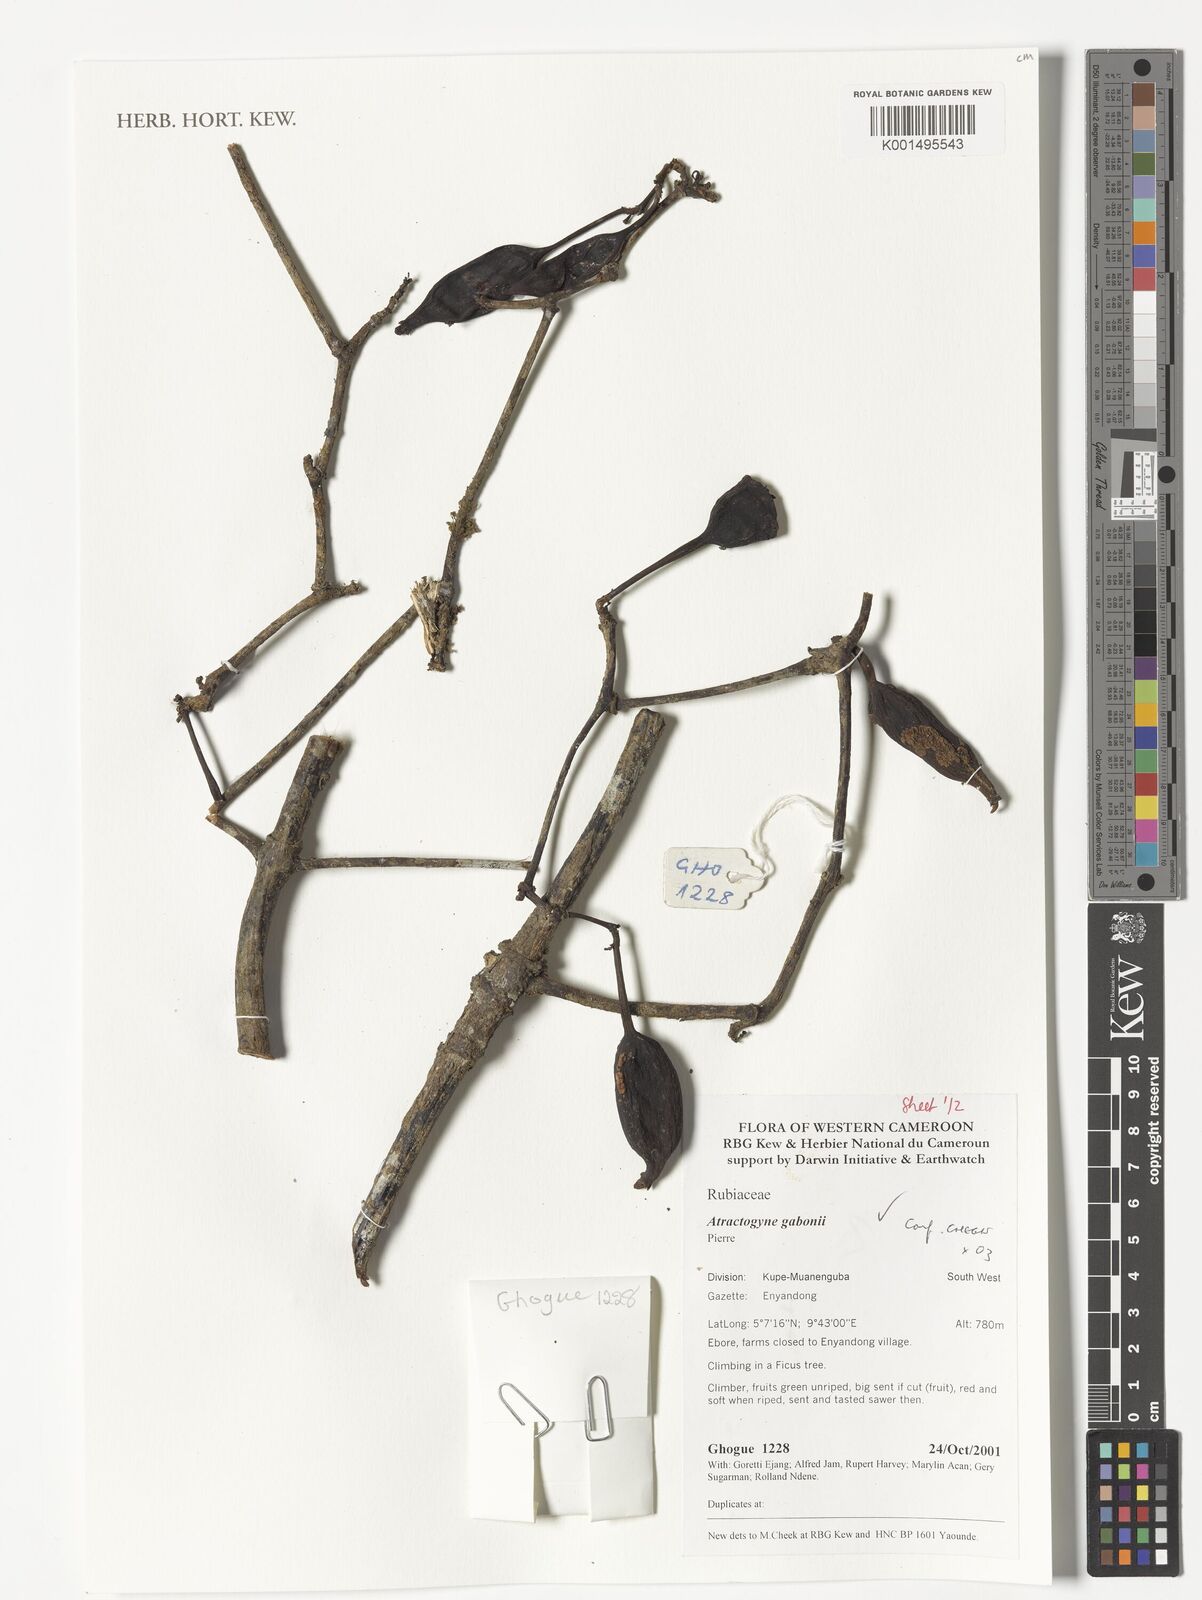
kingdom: Plantae
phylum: Tracheophyta
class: Magnoliopsida
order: Gentianales
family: Rubiaceae
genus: Atractogyne
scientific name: Atractogyne gabonii
